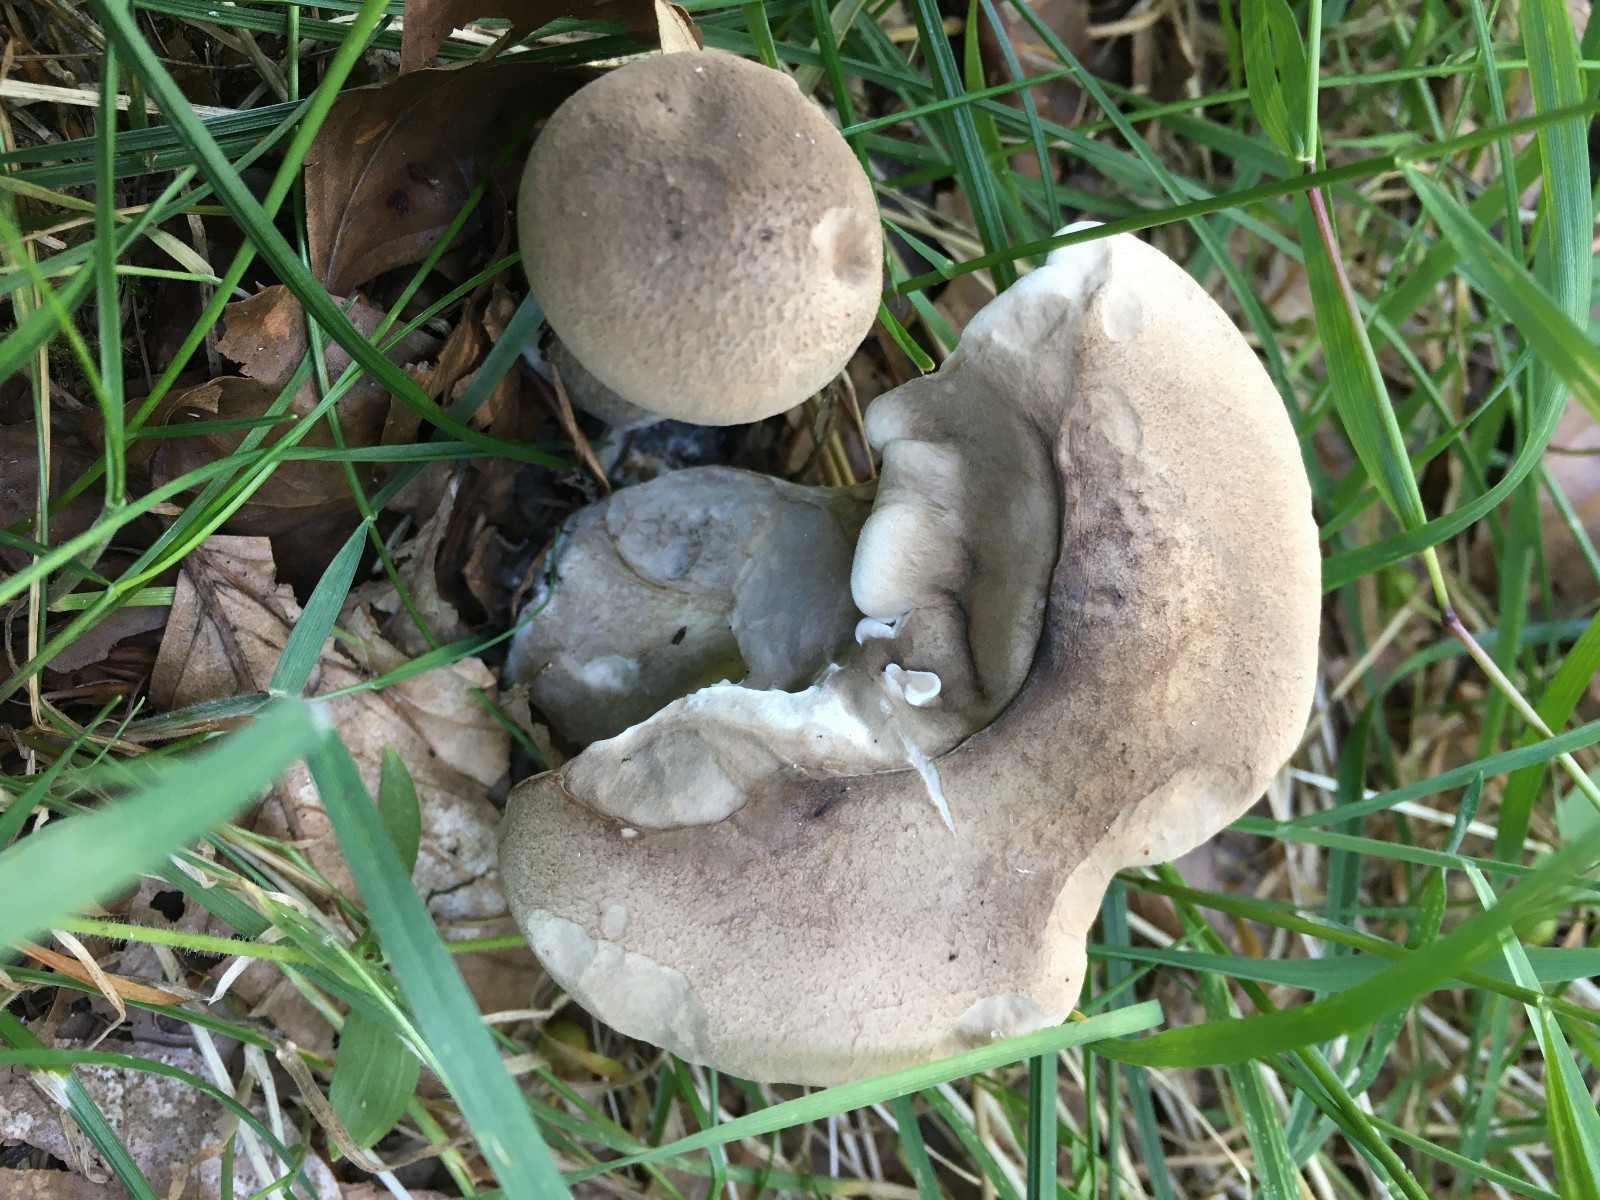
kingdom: Fungi
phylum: Basidiomycota
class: Agaricomycetes
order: Agaricales
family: Hygrophoraceae
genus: Ampulloclitocybe
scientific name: Ampulloclitocybe clavipes
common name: køllefod
